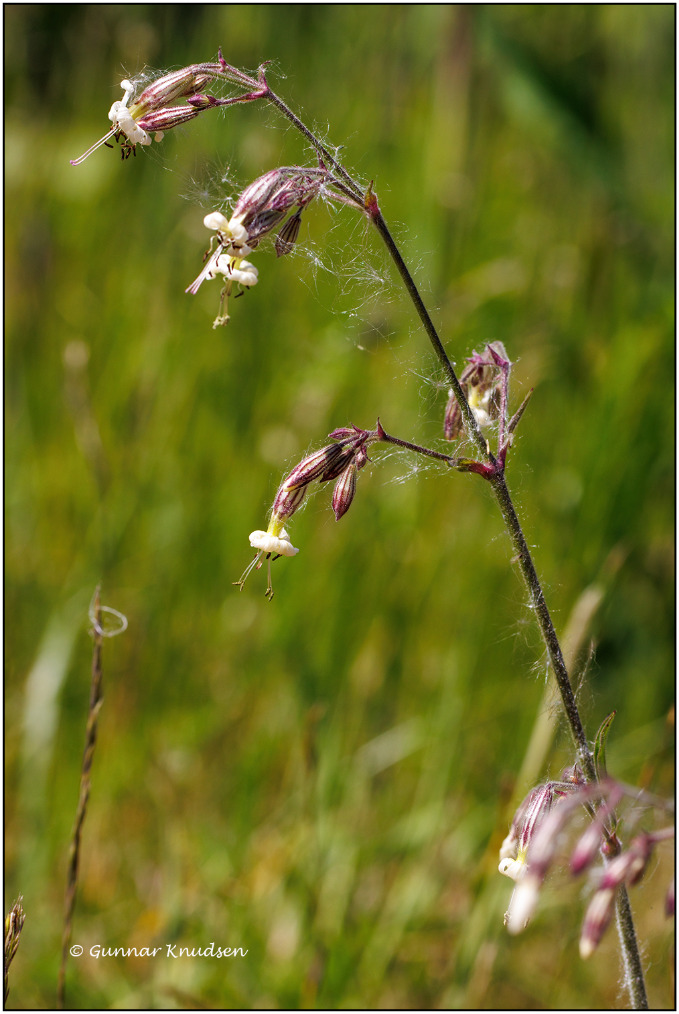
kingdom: Plantae
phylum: Tracheophyta
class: Magnoliopsida
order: Caryophyllales
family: Caryophyllaceae
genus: Silene
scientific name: Silene nutans
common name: Nikkende limurt
